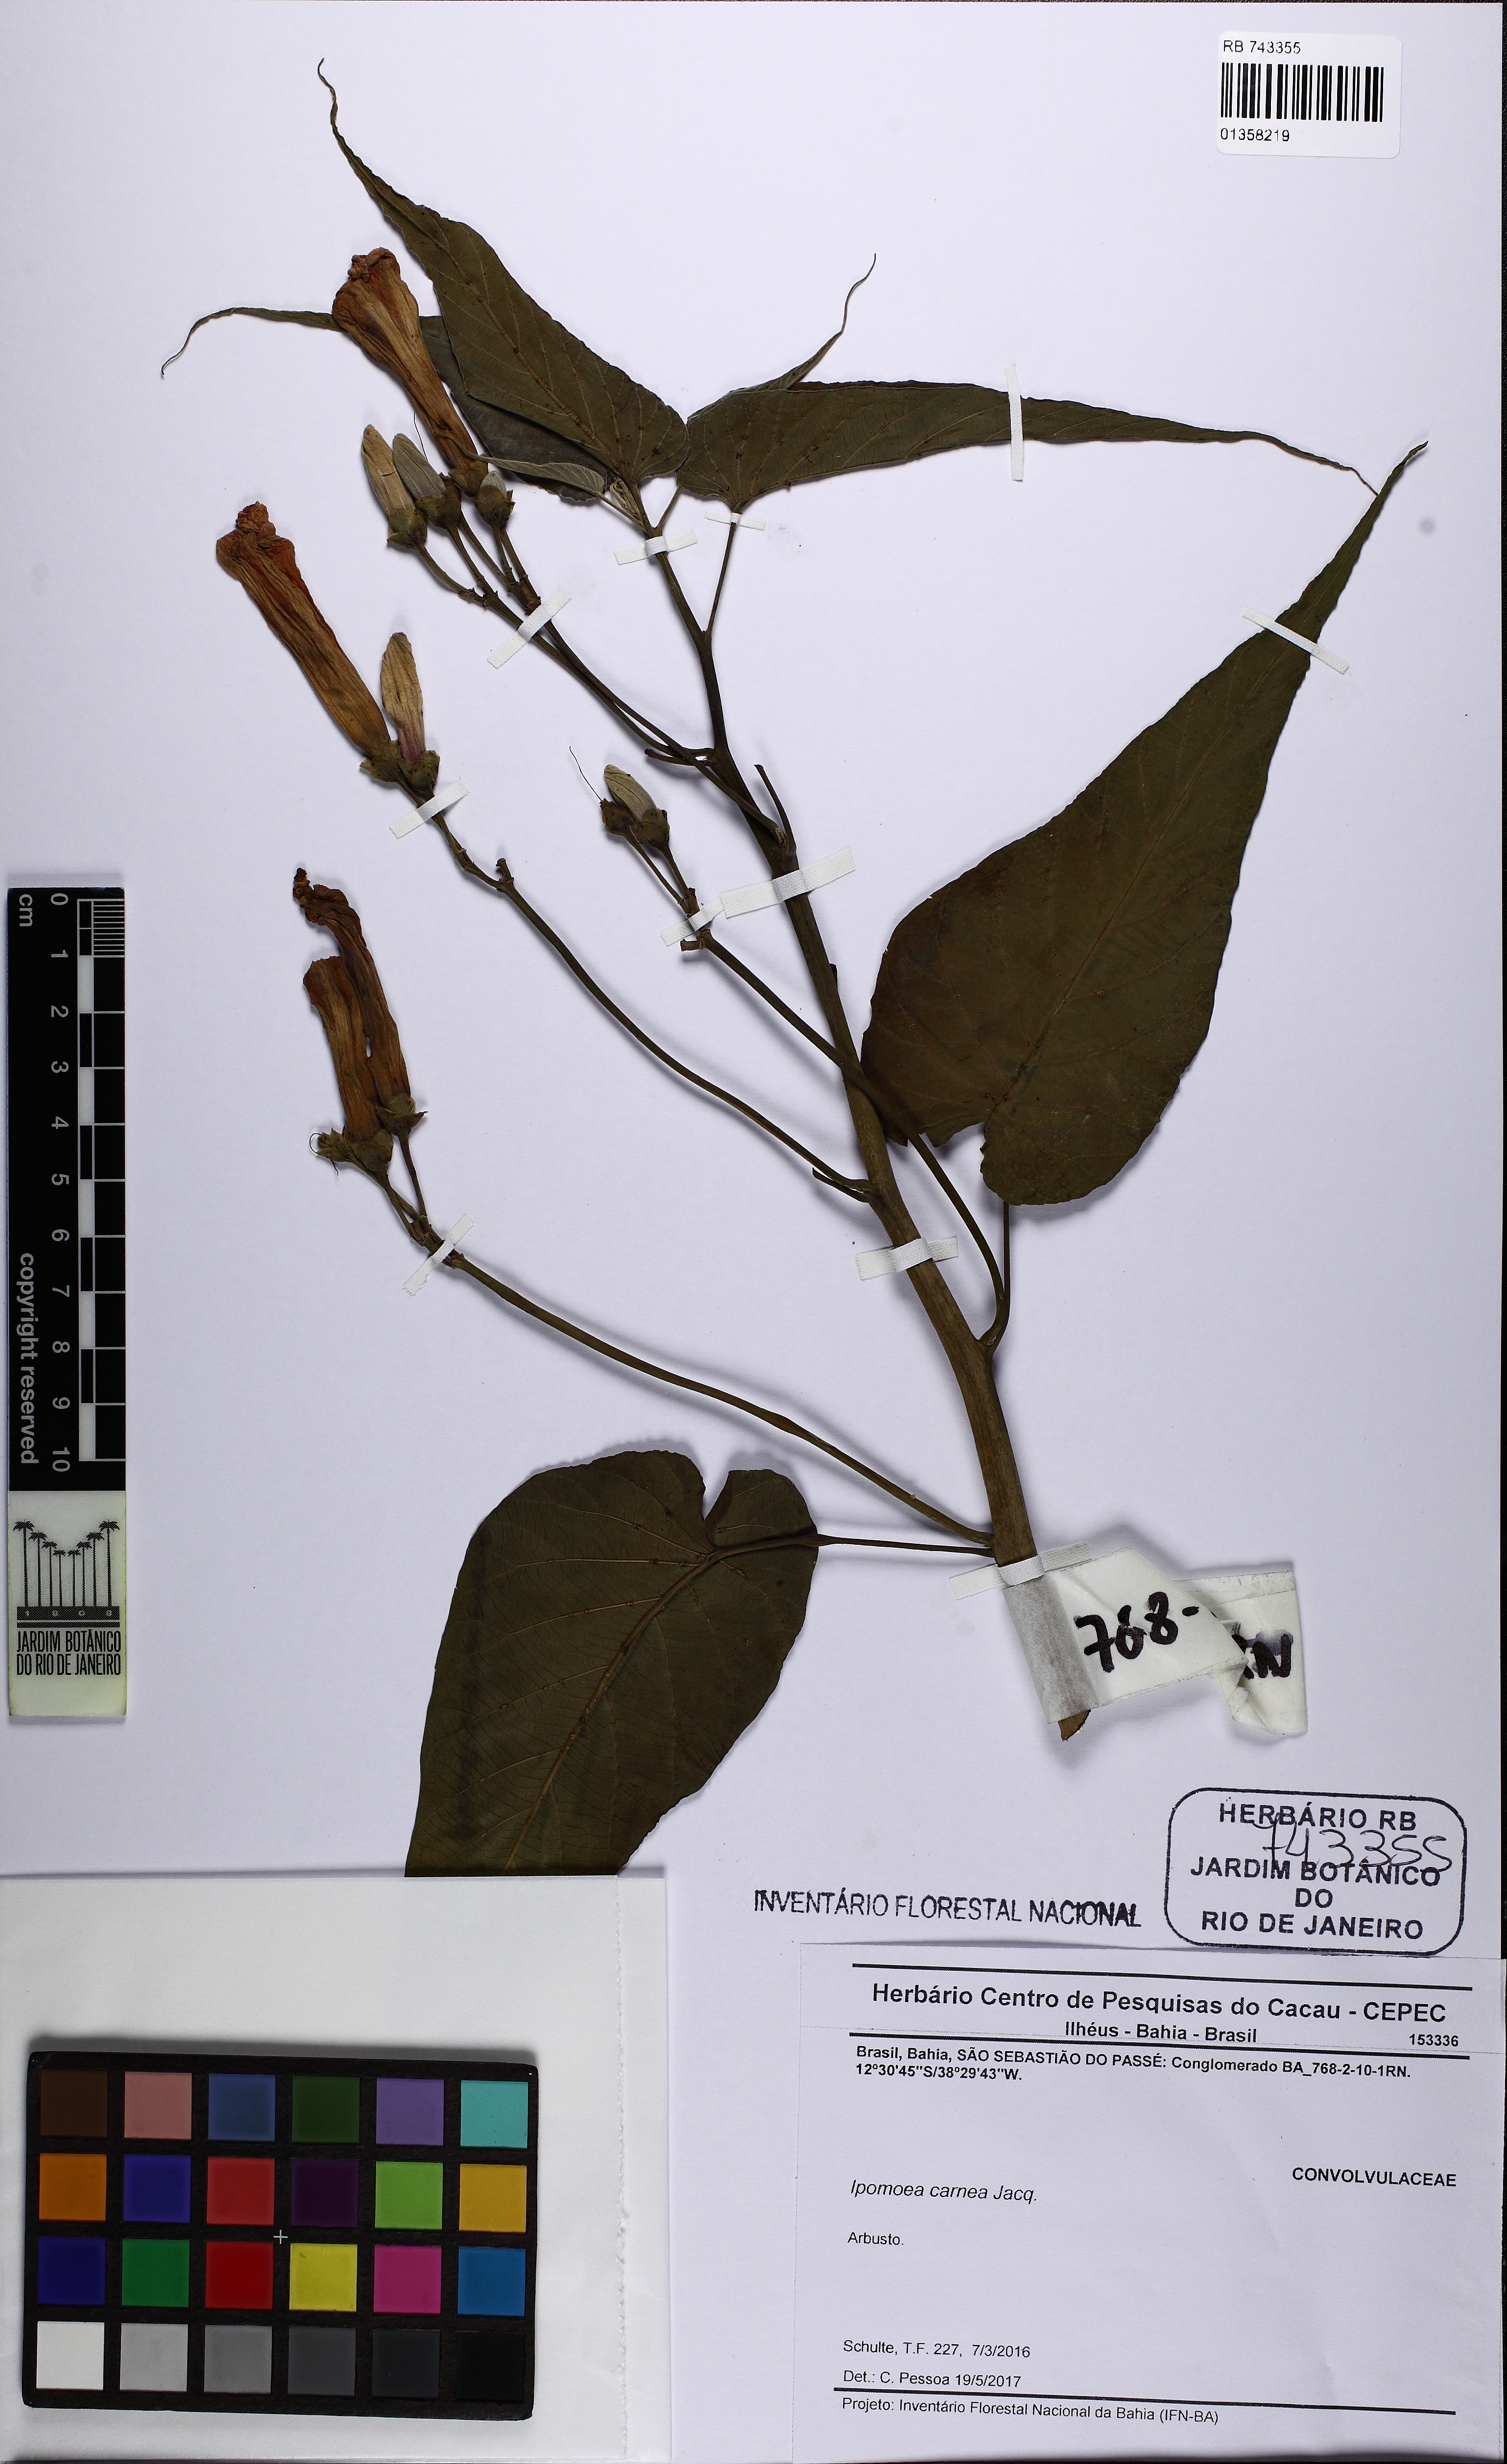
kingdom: Plantae
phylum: Tracheophyta
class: Magnoliopsida
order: Solanales
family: Convolvulaceae
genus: Ipomoea
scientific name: Ipomoea carnea
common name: Morning-glory
